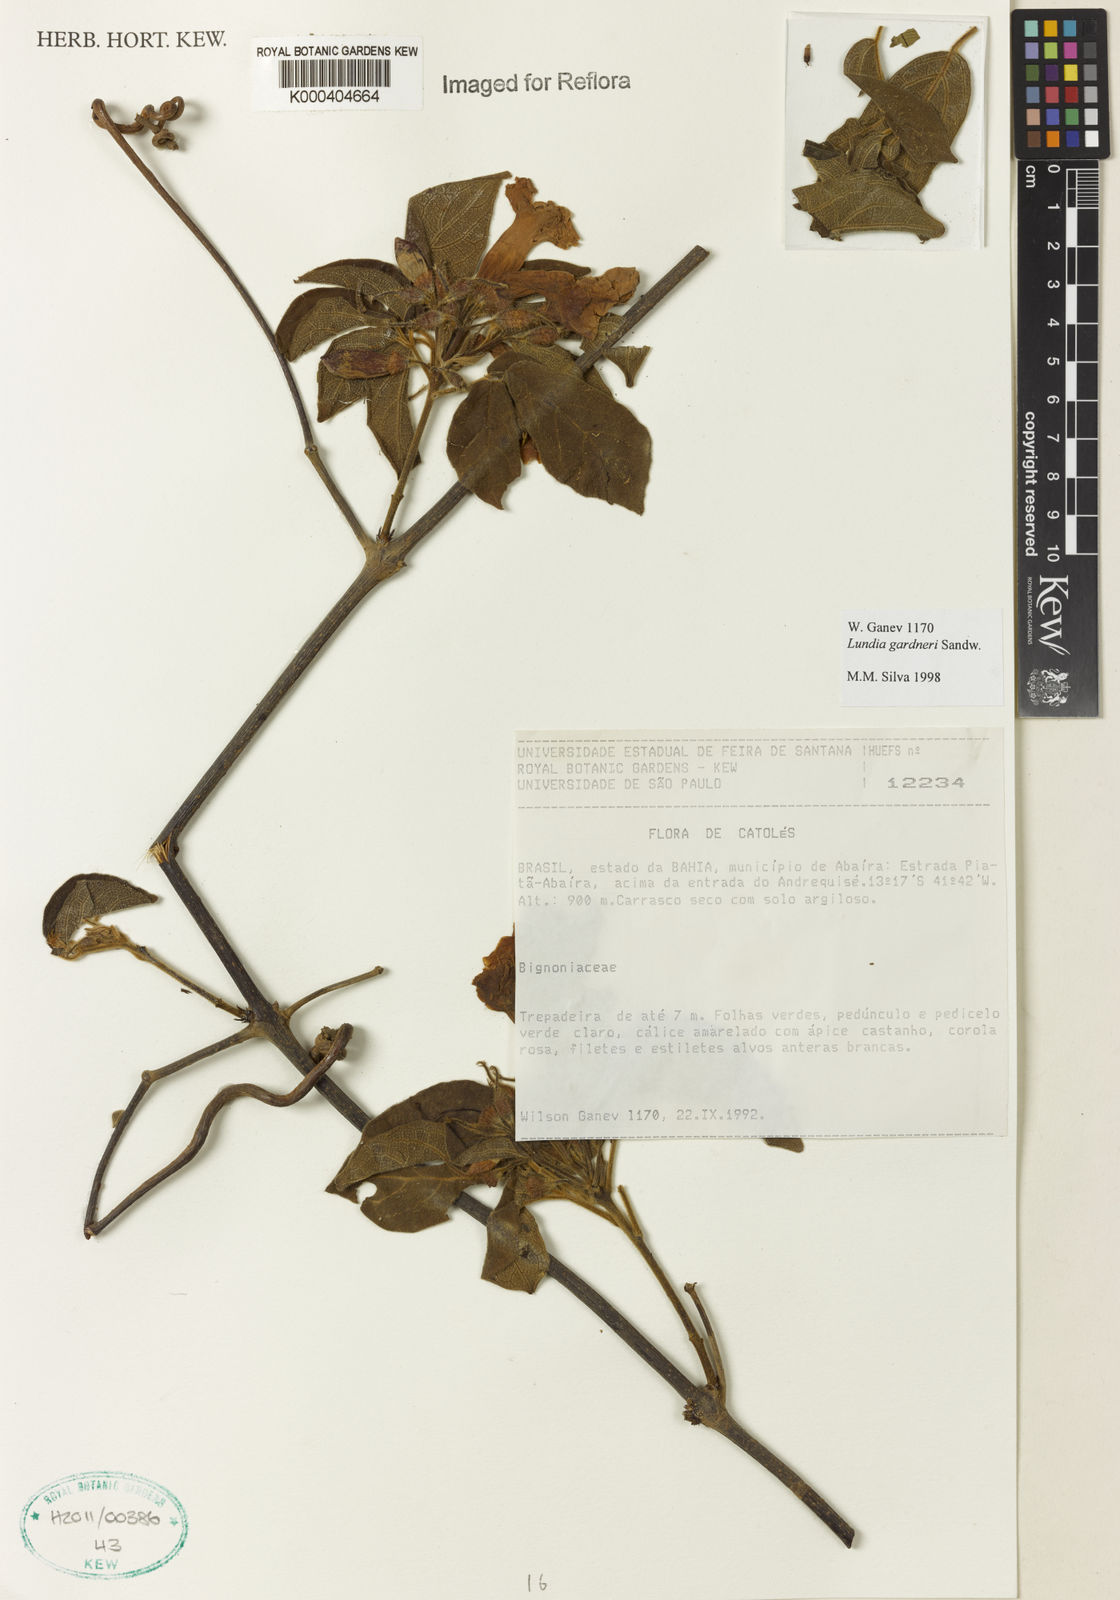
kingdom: Plantae
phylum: Tracheophyta
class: Magnoliopsida
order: Lamiales
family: Bignoniaceae
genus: Lundia
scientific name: Lundia gardneri
